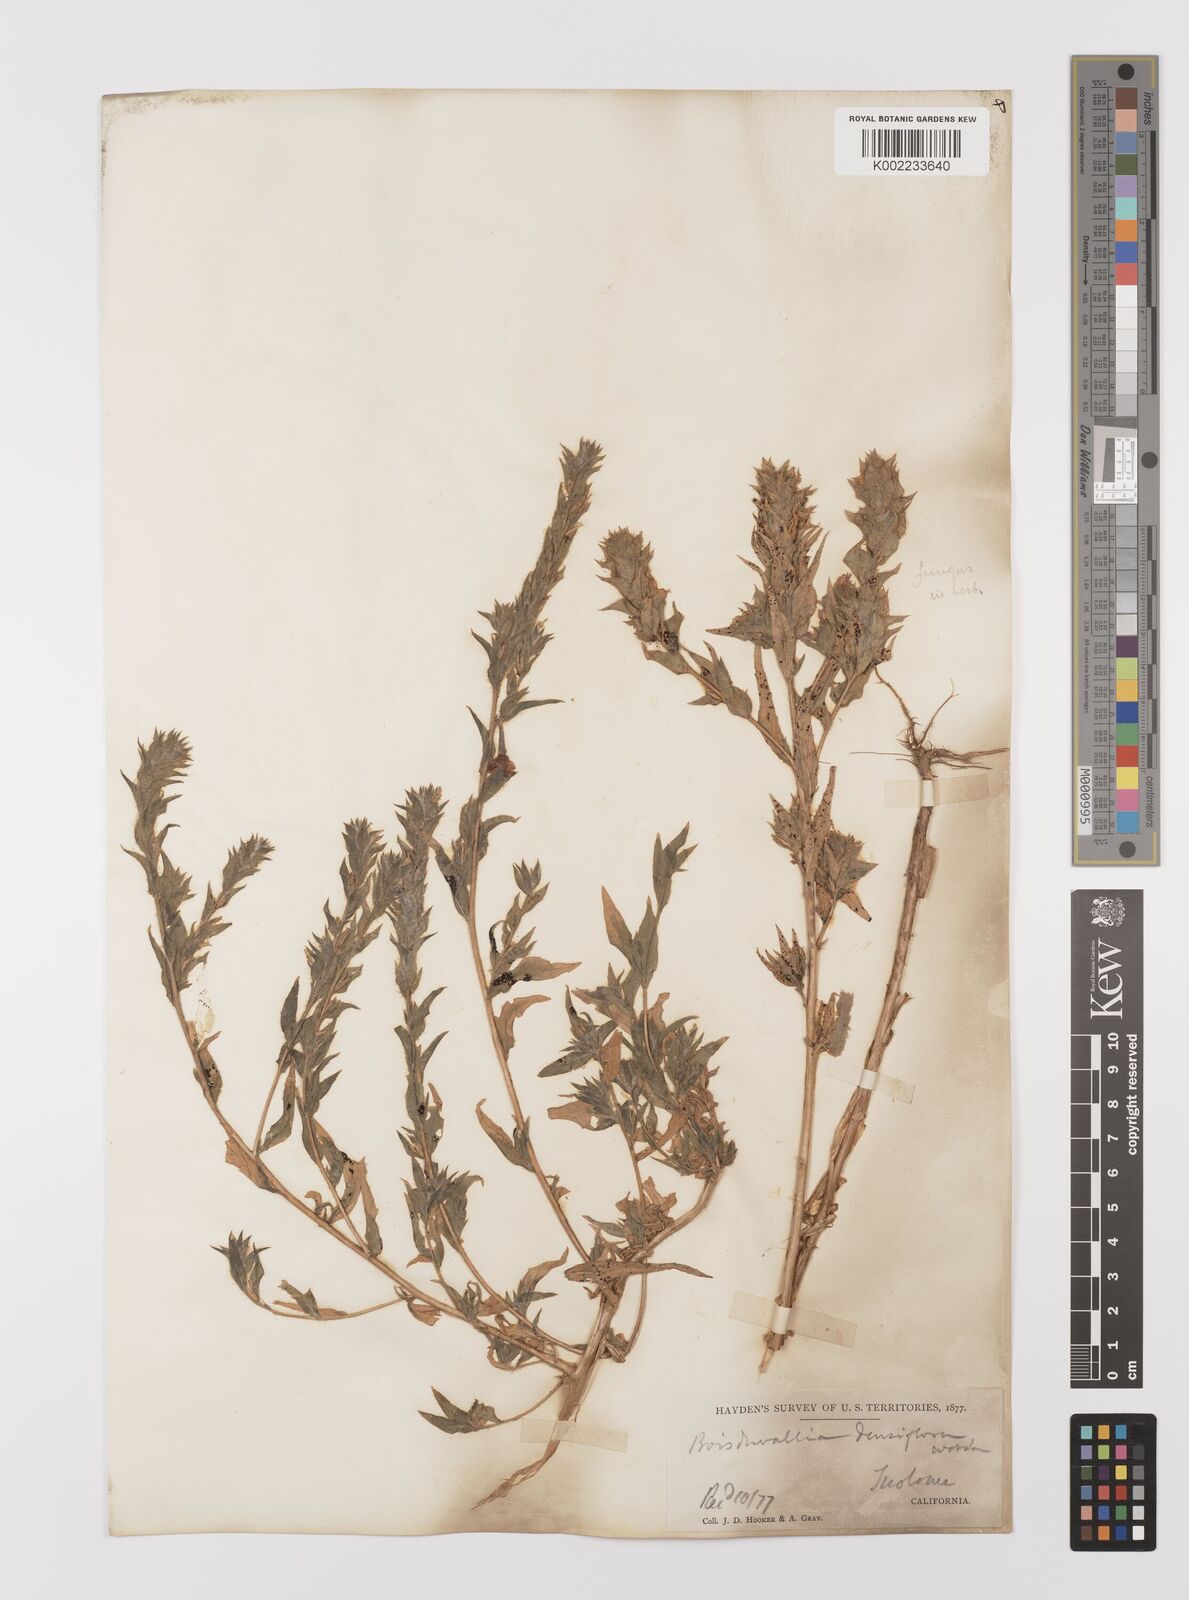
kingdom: Plantae
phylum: Tracheophyta
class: Magnoliopsida
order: Myrtales
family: Onagraceae
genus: Epilobium
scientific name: Epilobium densiflorum
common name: Dense spike-primrose
